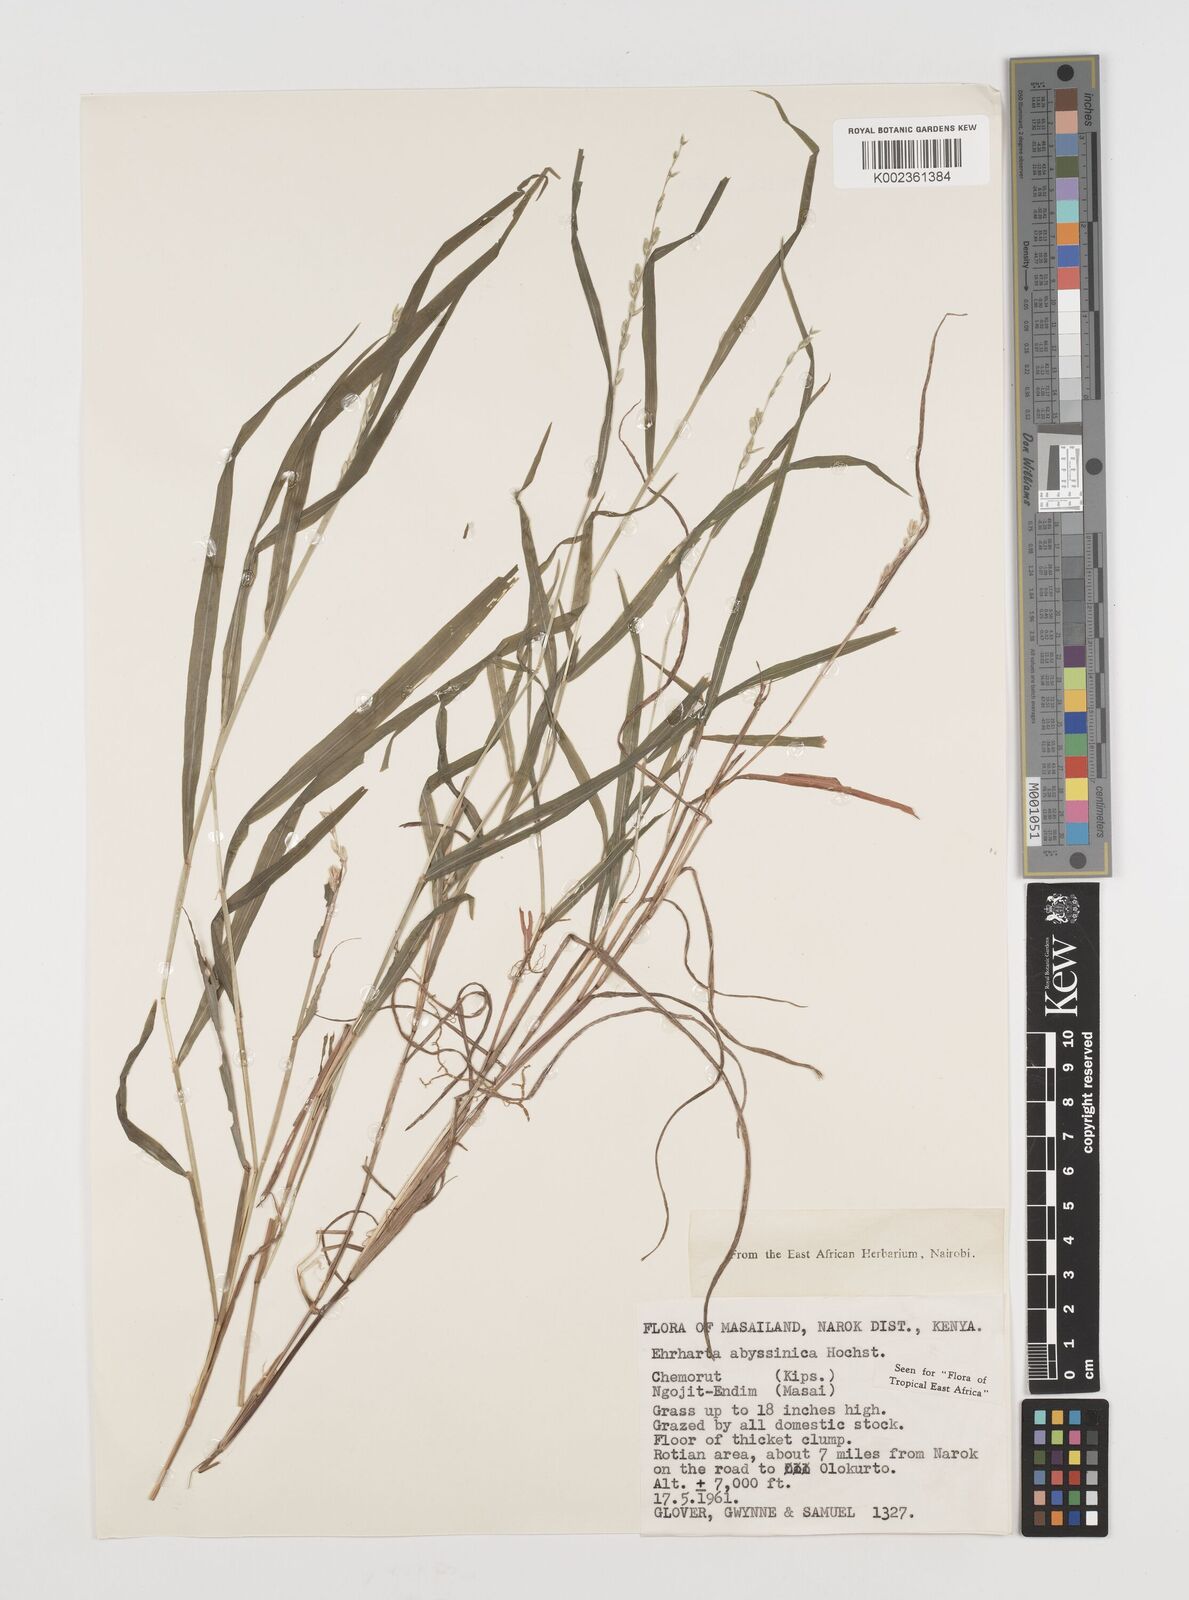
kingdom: Plantae
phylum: Tracheophyta
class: Liliopsida
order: Poales
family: Poaceae
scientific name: Poaceae
